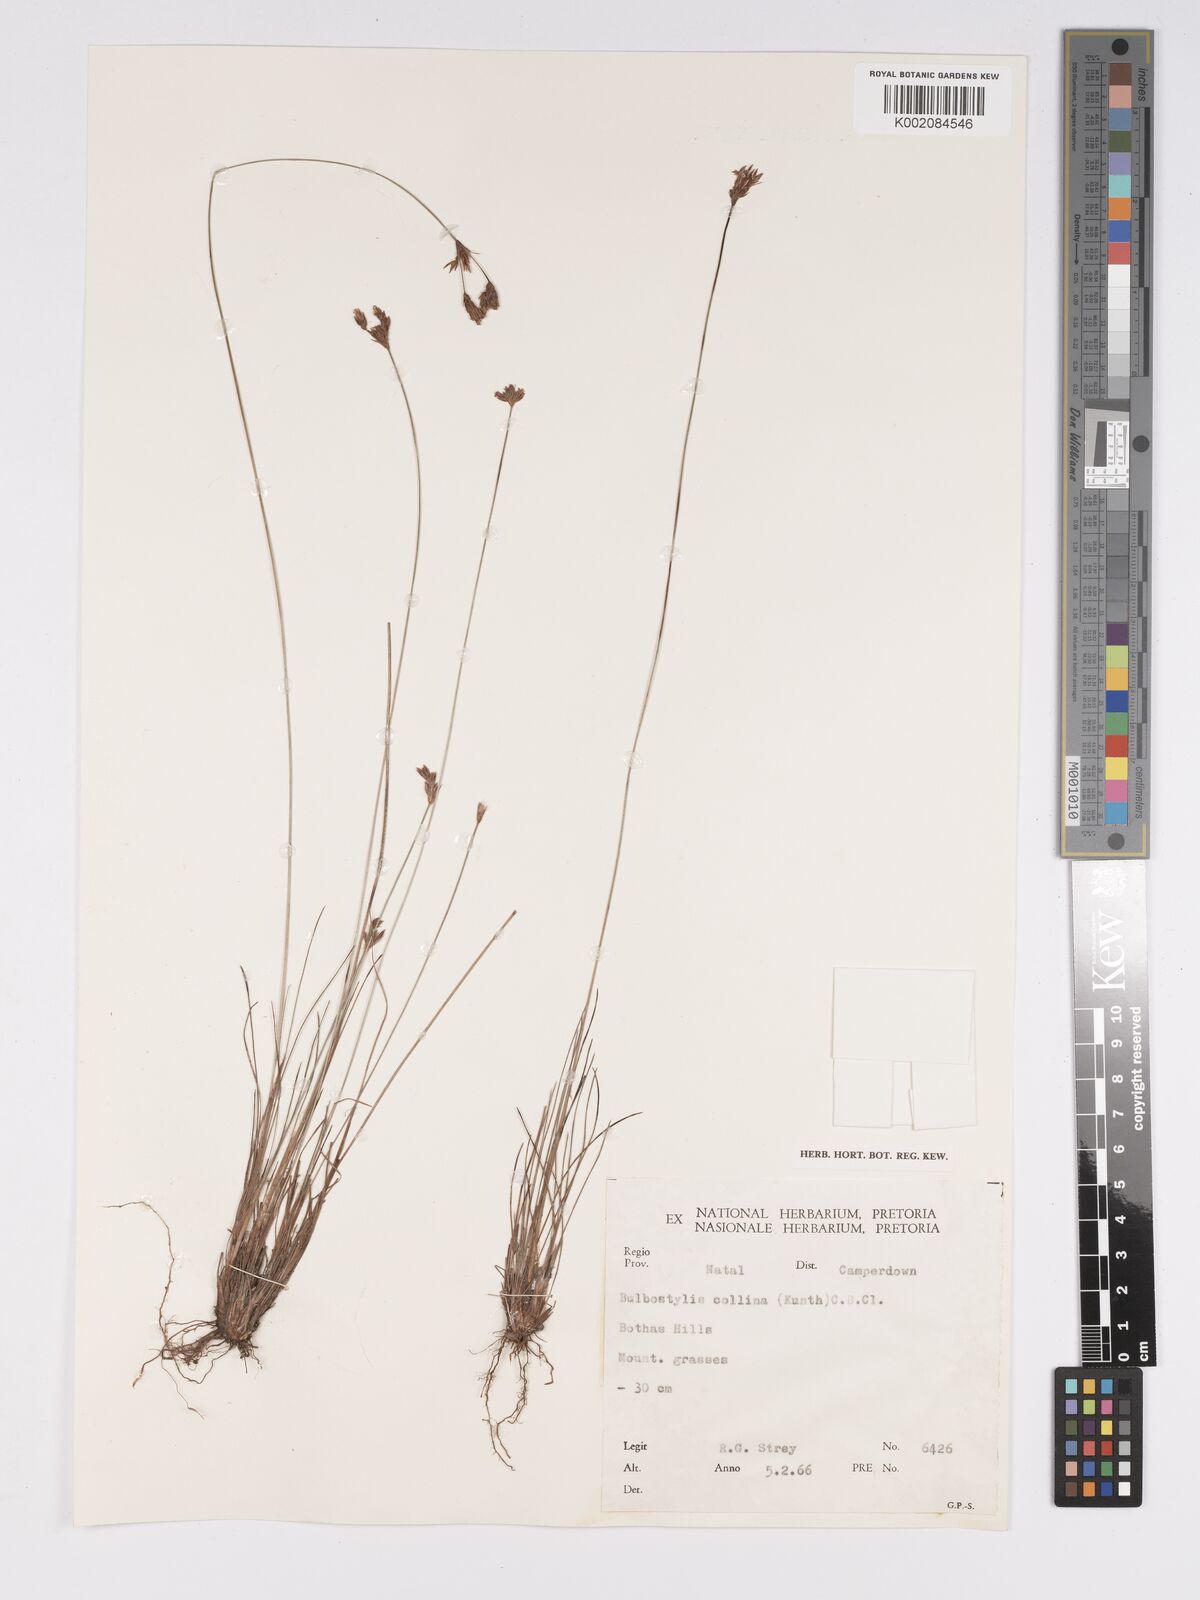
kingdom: Plantae
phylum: Tracheophyta
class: Liliopsida
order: Poales
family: Cyperaceae
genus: Bulbostylis
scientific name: Bulbostylis contexta
